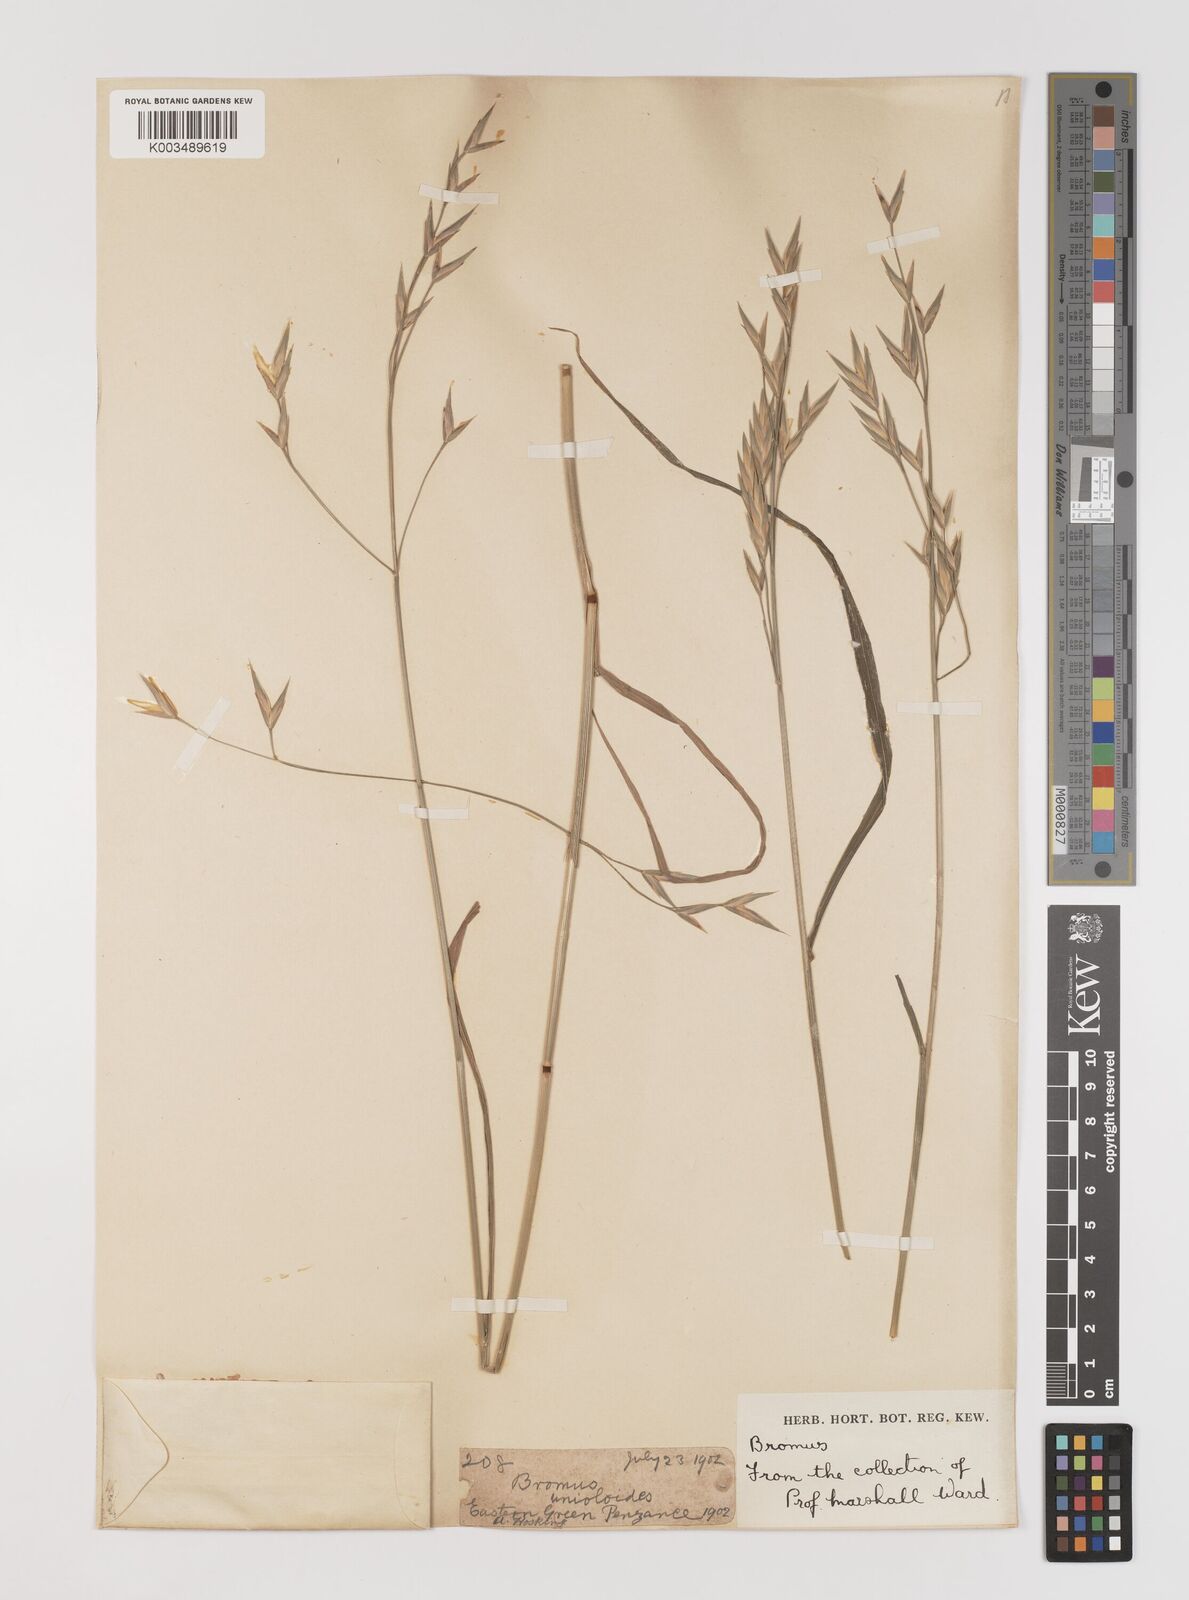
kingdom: Plantae
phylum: Tracheophyta
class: Liliopsida
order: Poales
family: Poaceae
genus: Bromus
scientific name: Bromus catharticus
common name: Rescuegrass
